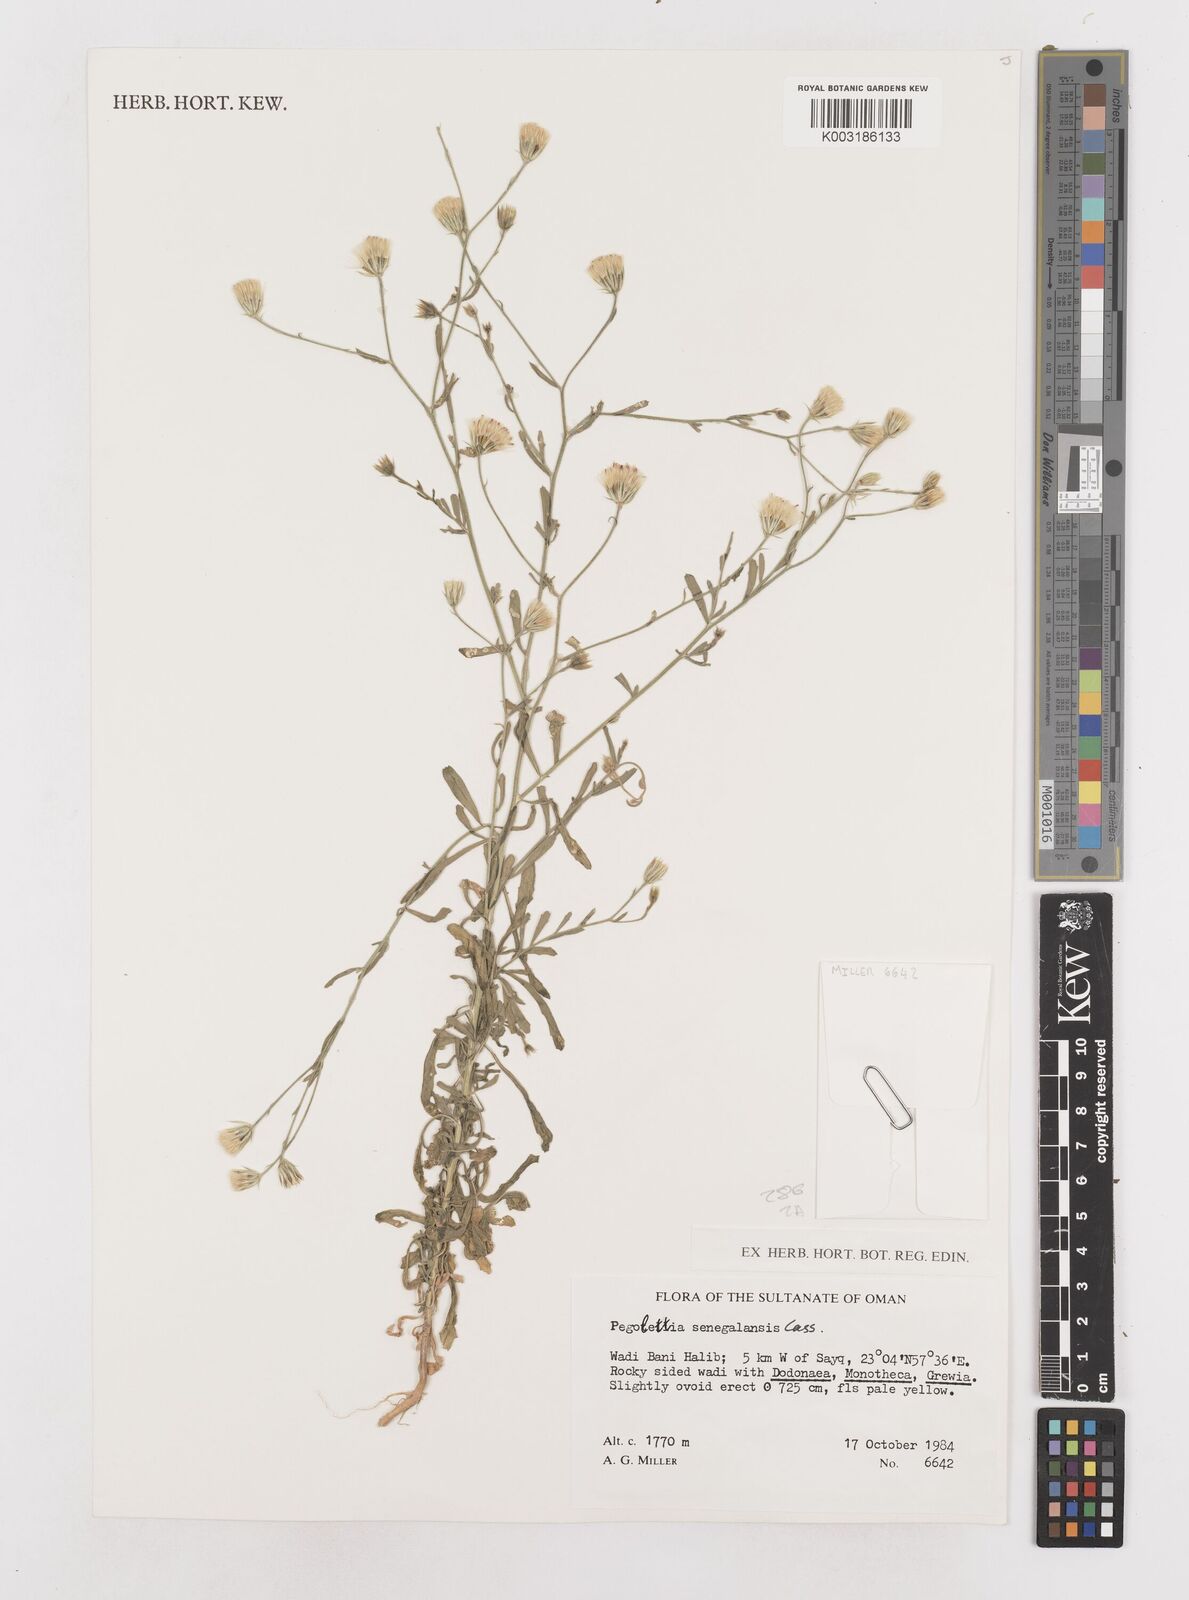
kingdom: Plantae
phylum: Tracheophyta
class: Magnoliopsida
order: Asterales
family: Asteraceae
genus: Pegolettia
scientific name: Pegolettia senegalensis
